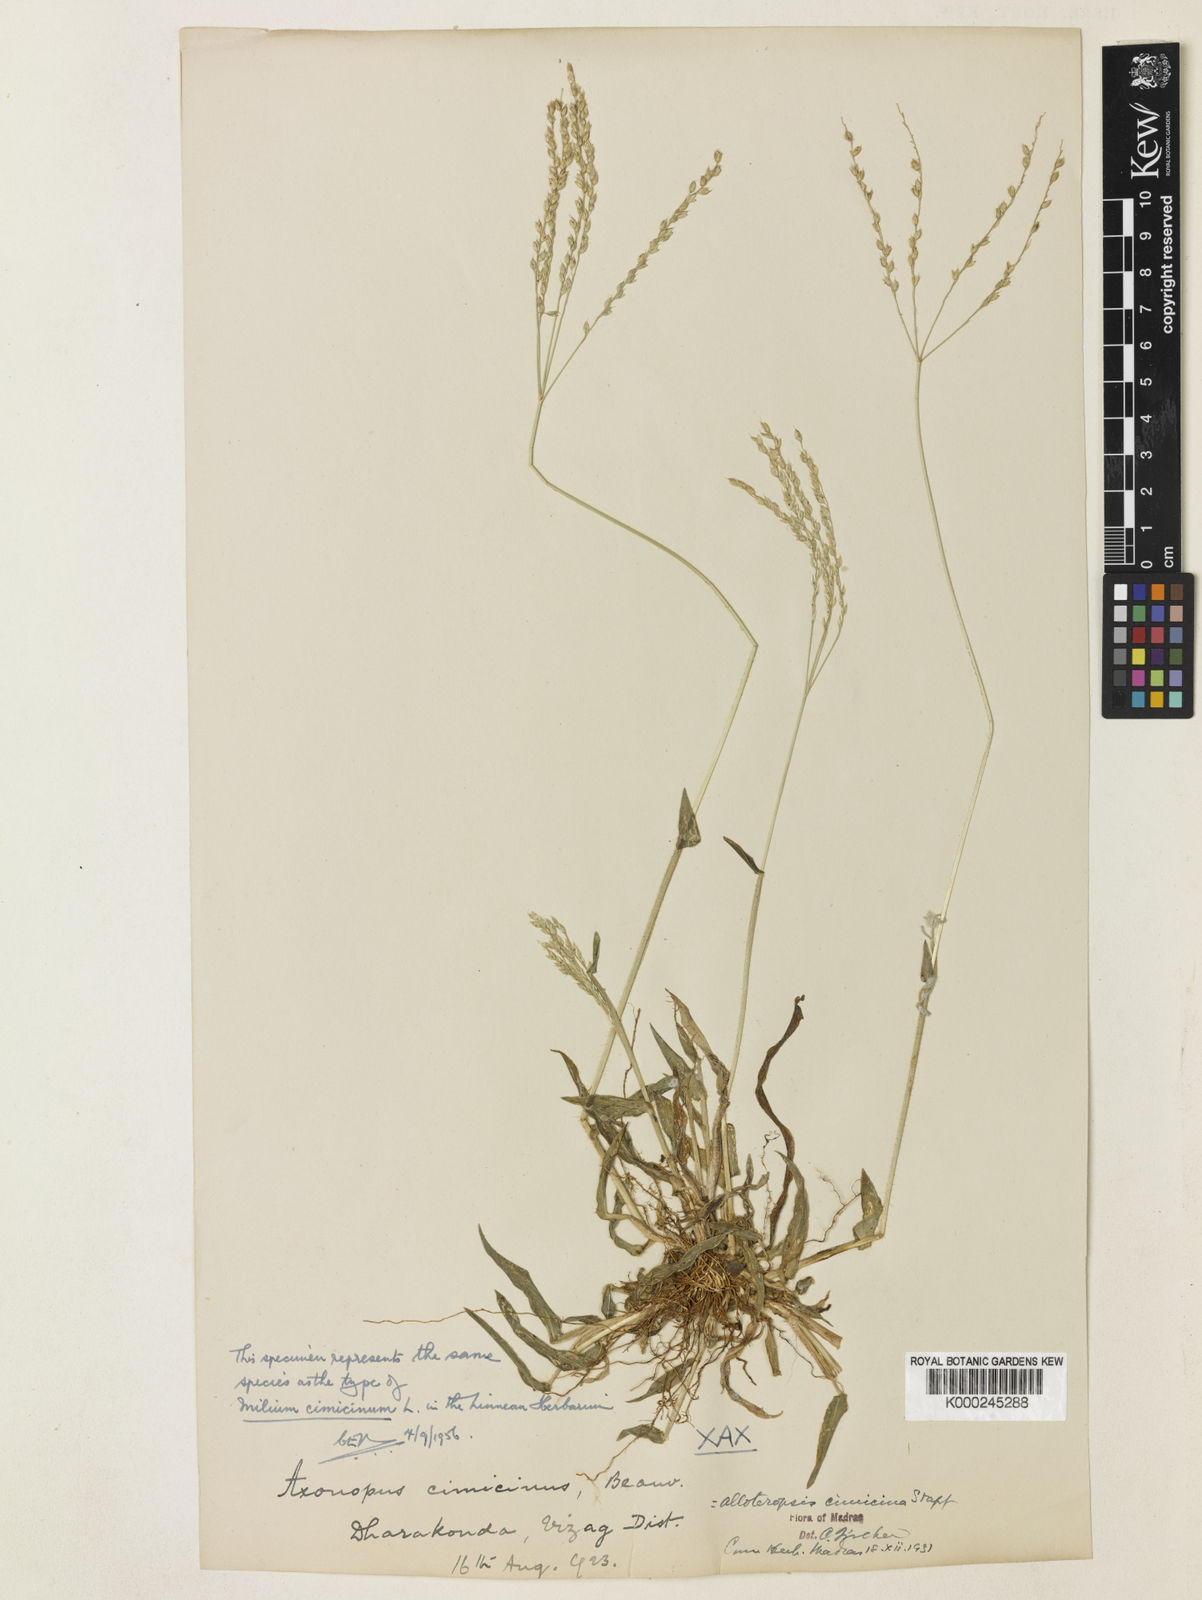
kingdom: Plantae
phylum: Tracheophyta
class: Liliopsida
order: Poales
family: Poaceae
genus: Alloteropsis
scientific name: Alloteropsis cimicina
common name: Summergrass
